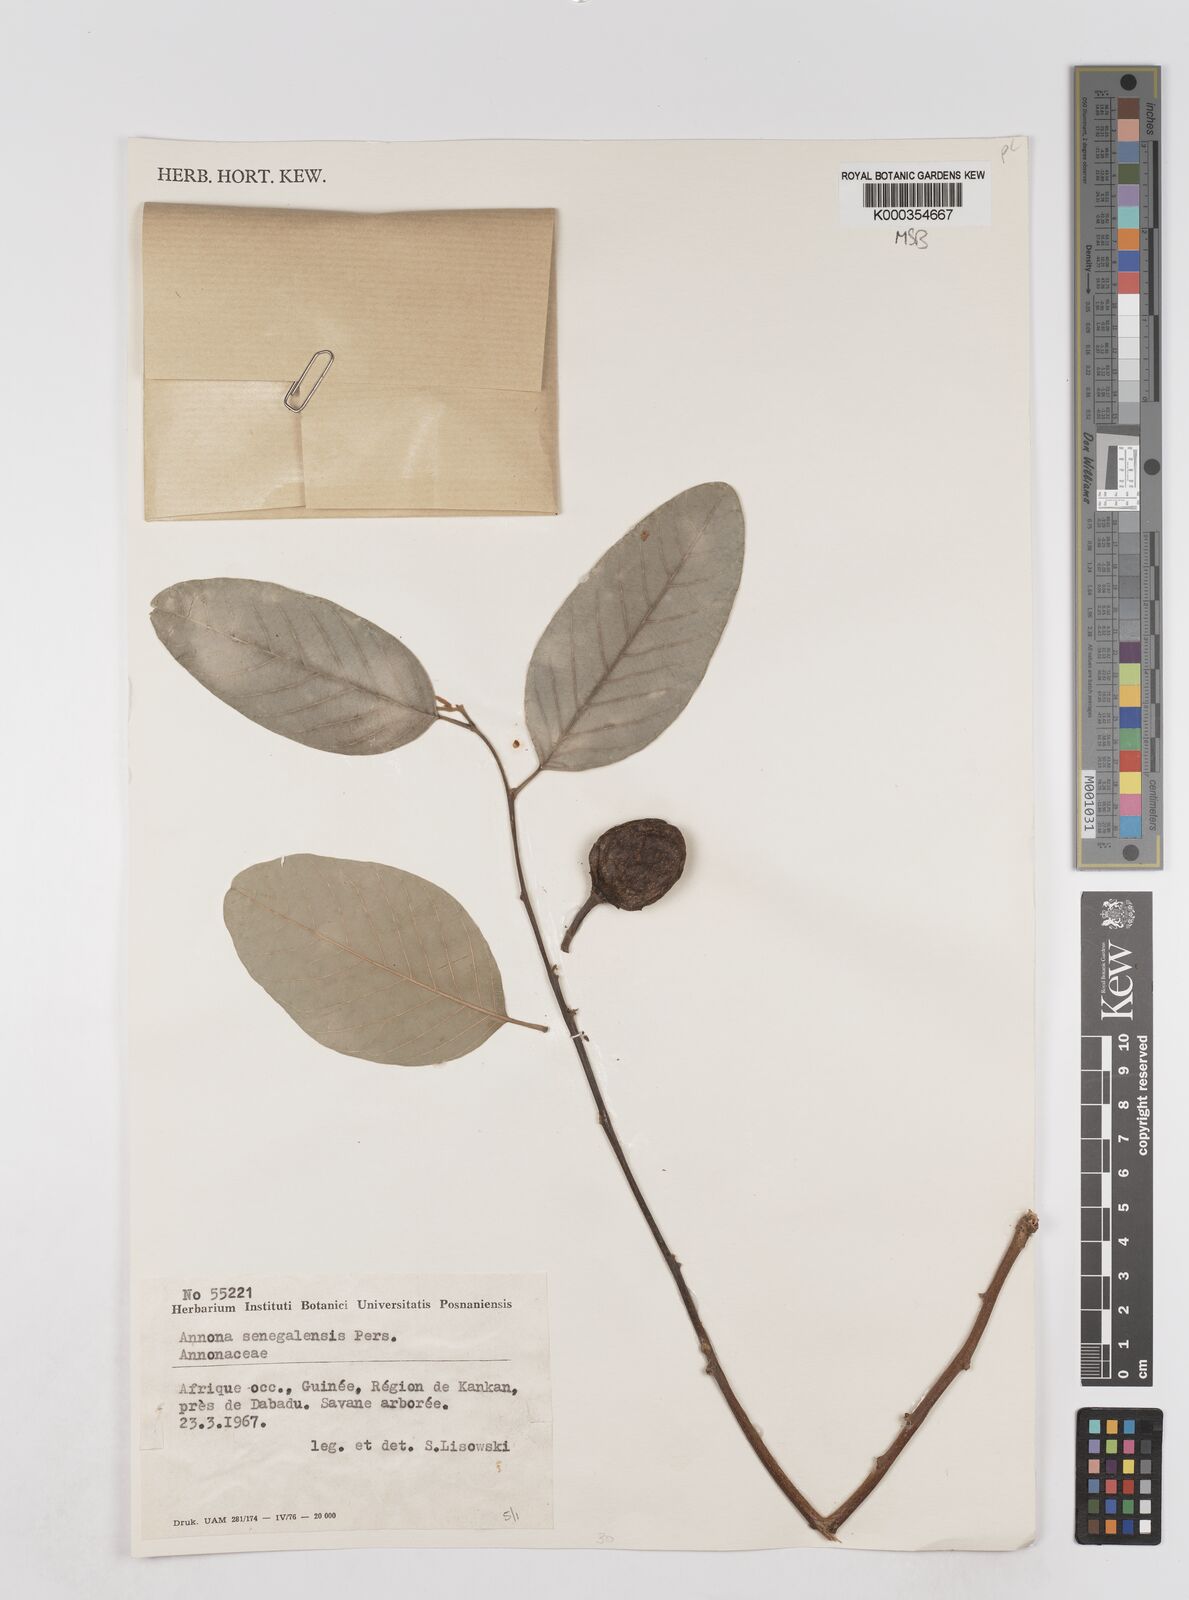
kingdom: Plantae
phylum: Tracheophyta
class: Magnoliopsida
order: Magnoliales
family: Annonaceae
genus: Annona
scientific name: Annona senegalensis
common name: Wild custard-apple
